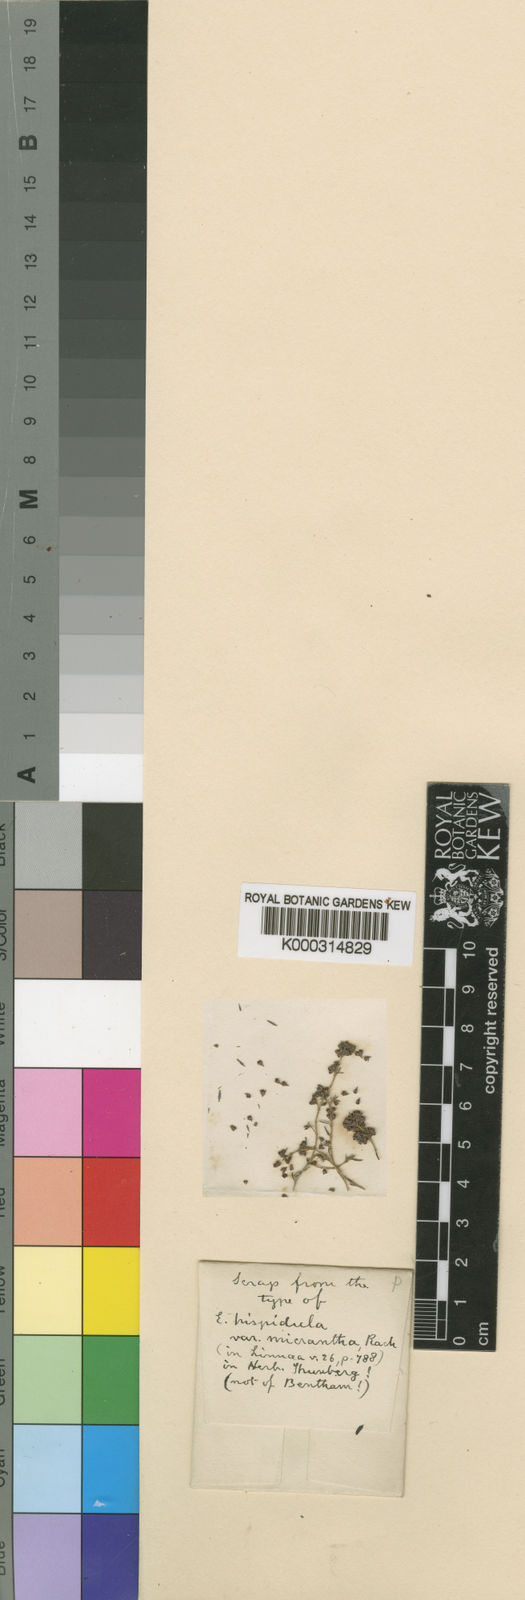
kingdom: Plantae
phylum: Tracheophyta
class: Magnoliopsida
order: Ericales
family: Ericaceae
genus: Erica
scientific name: Erica hispidula
